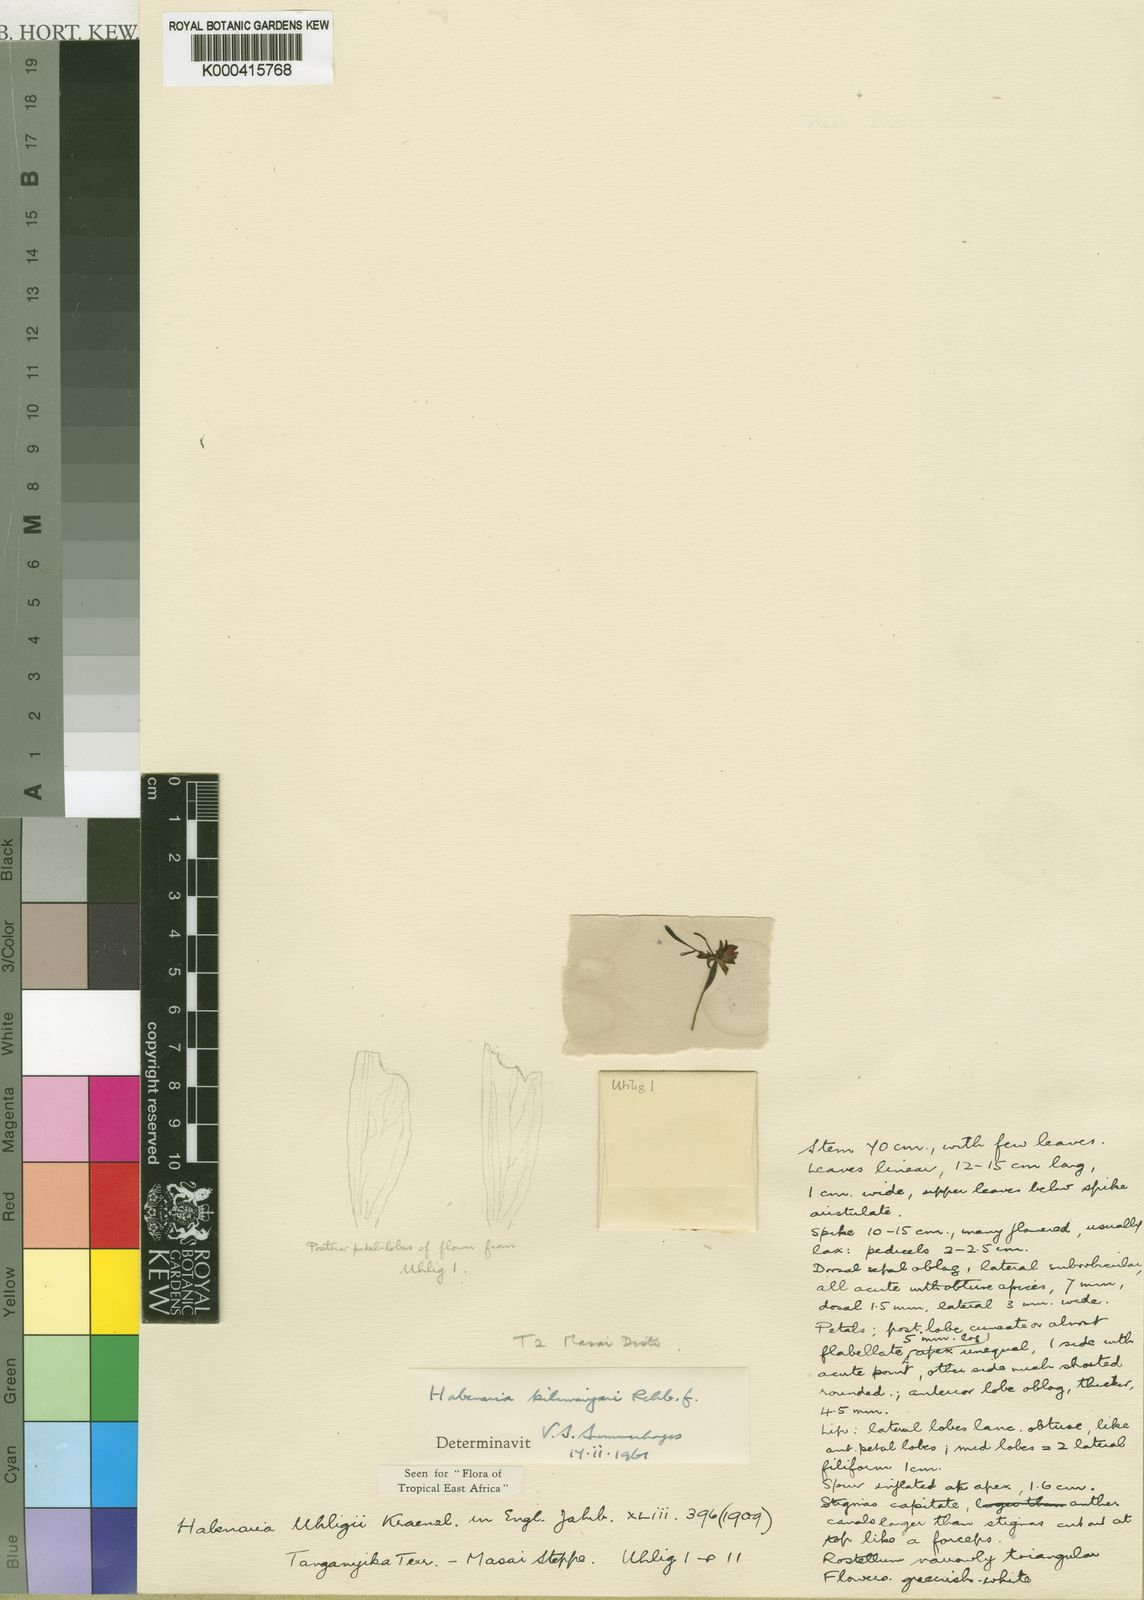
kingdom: Plantae
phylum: Tracheophyta
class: Liliopsida
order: Asparagales
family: Orchidaceae
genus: Habenaria
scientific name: Habenaria kilimanjari
